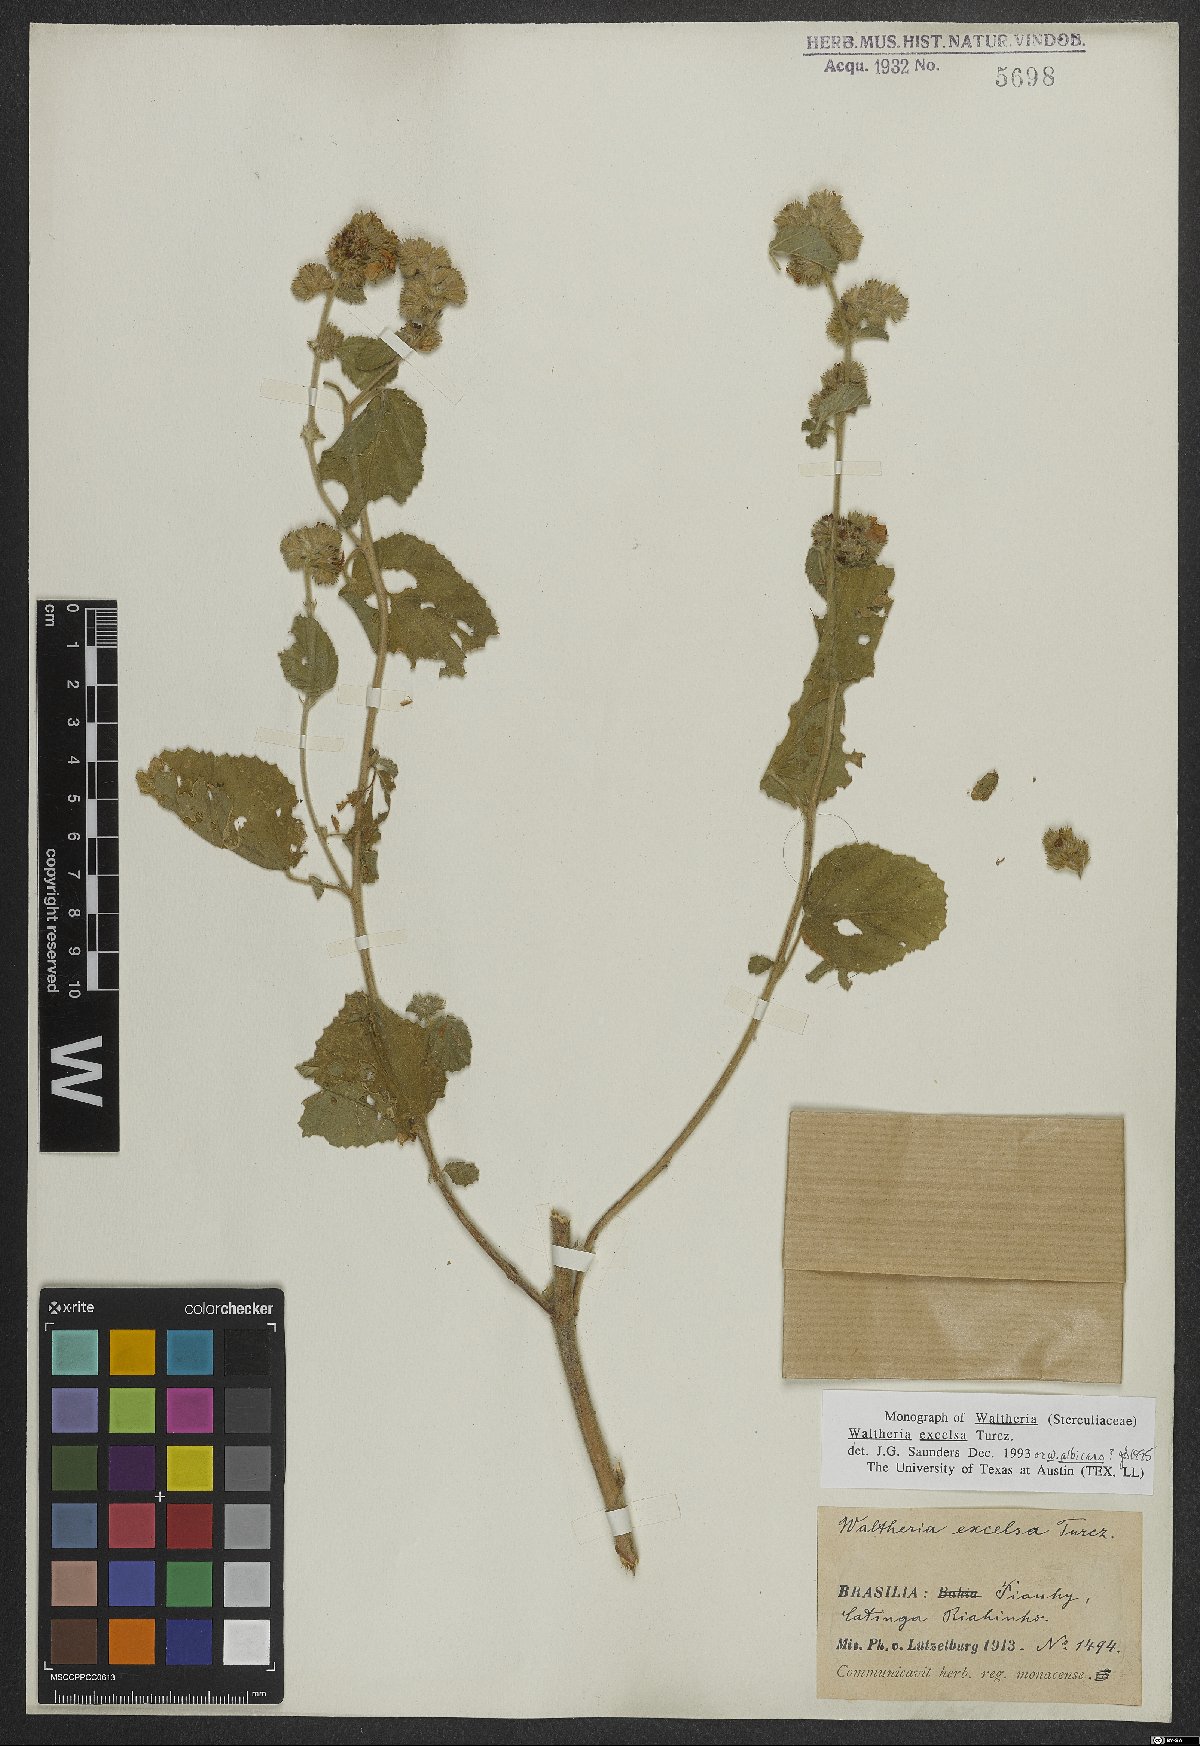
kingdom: Plantae
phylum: Tracheophyta
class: Magnoliopsida
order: Malvales
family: Malvaceae
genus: Waltheria
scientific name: Waltheria excelsa
